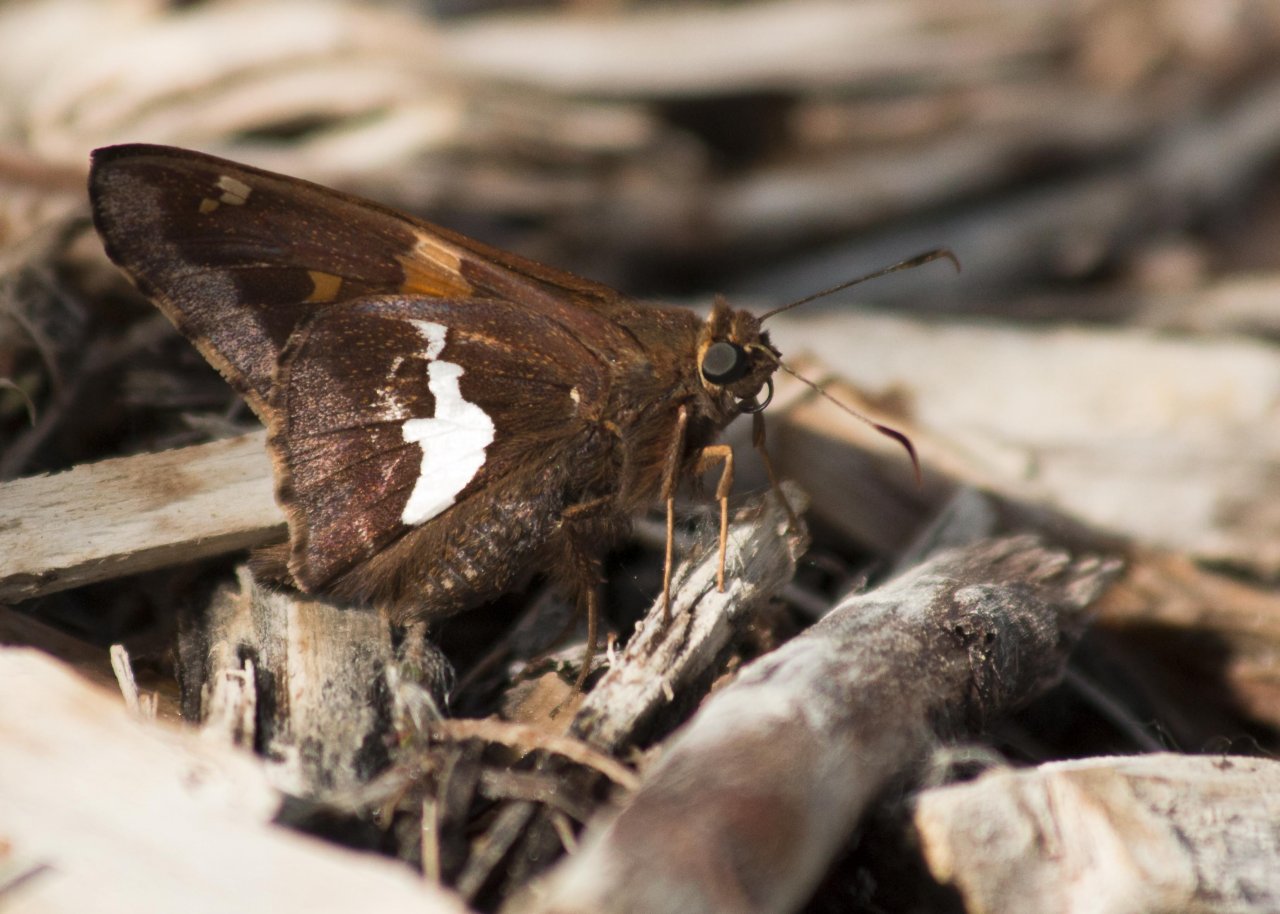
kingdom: Animalia
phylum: Arthropoda
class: Insecta
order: Lepidoptera
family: Hesperiidae
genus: Epargyreus
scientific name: Epargyreus clarus
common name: Silver-spotted Skipper
